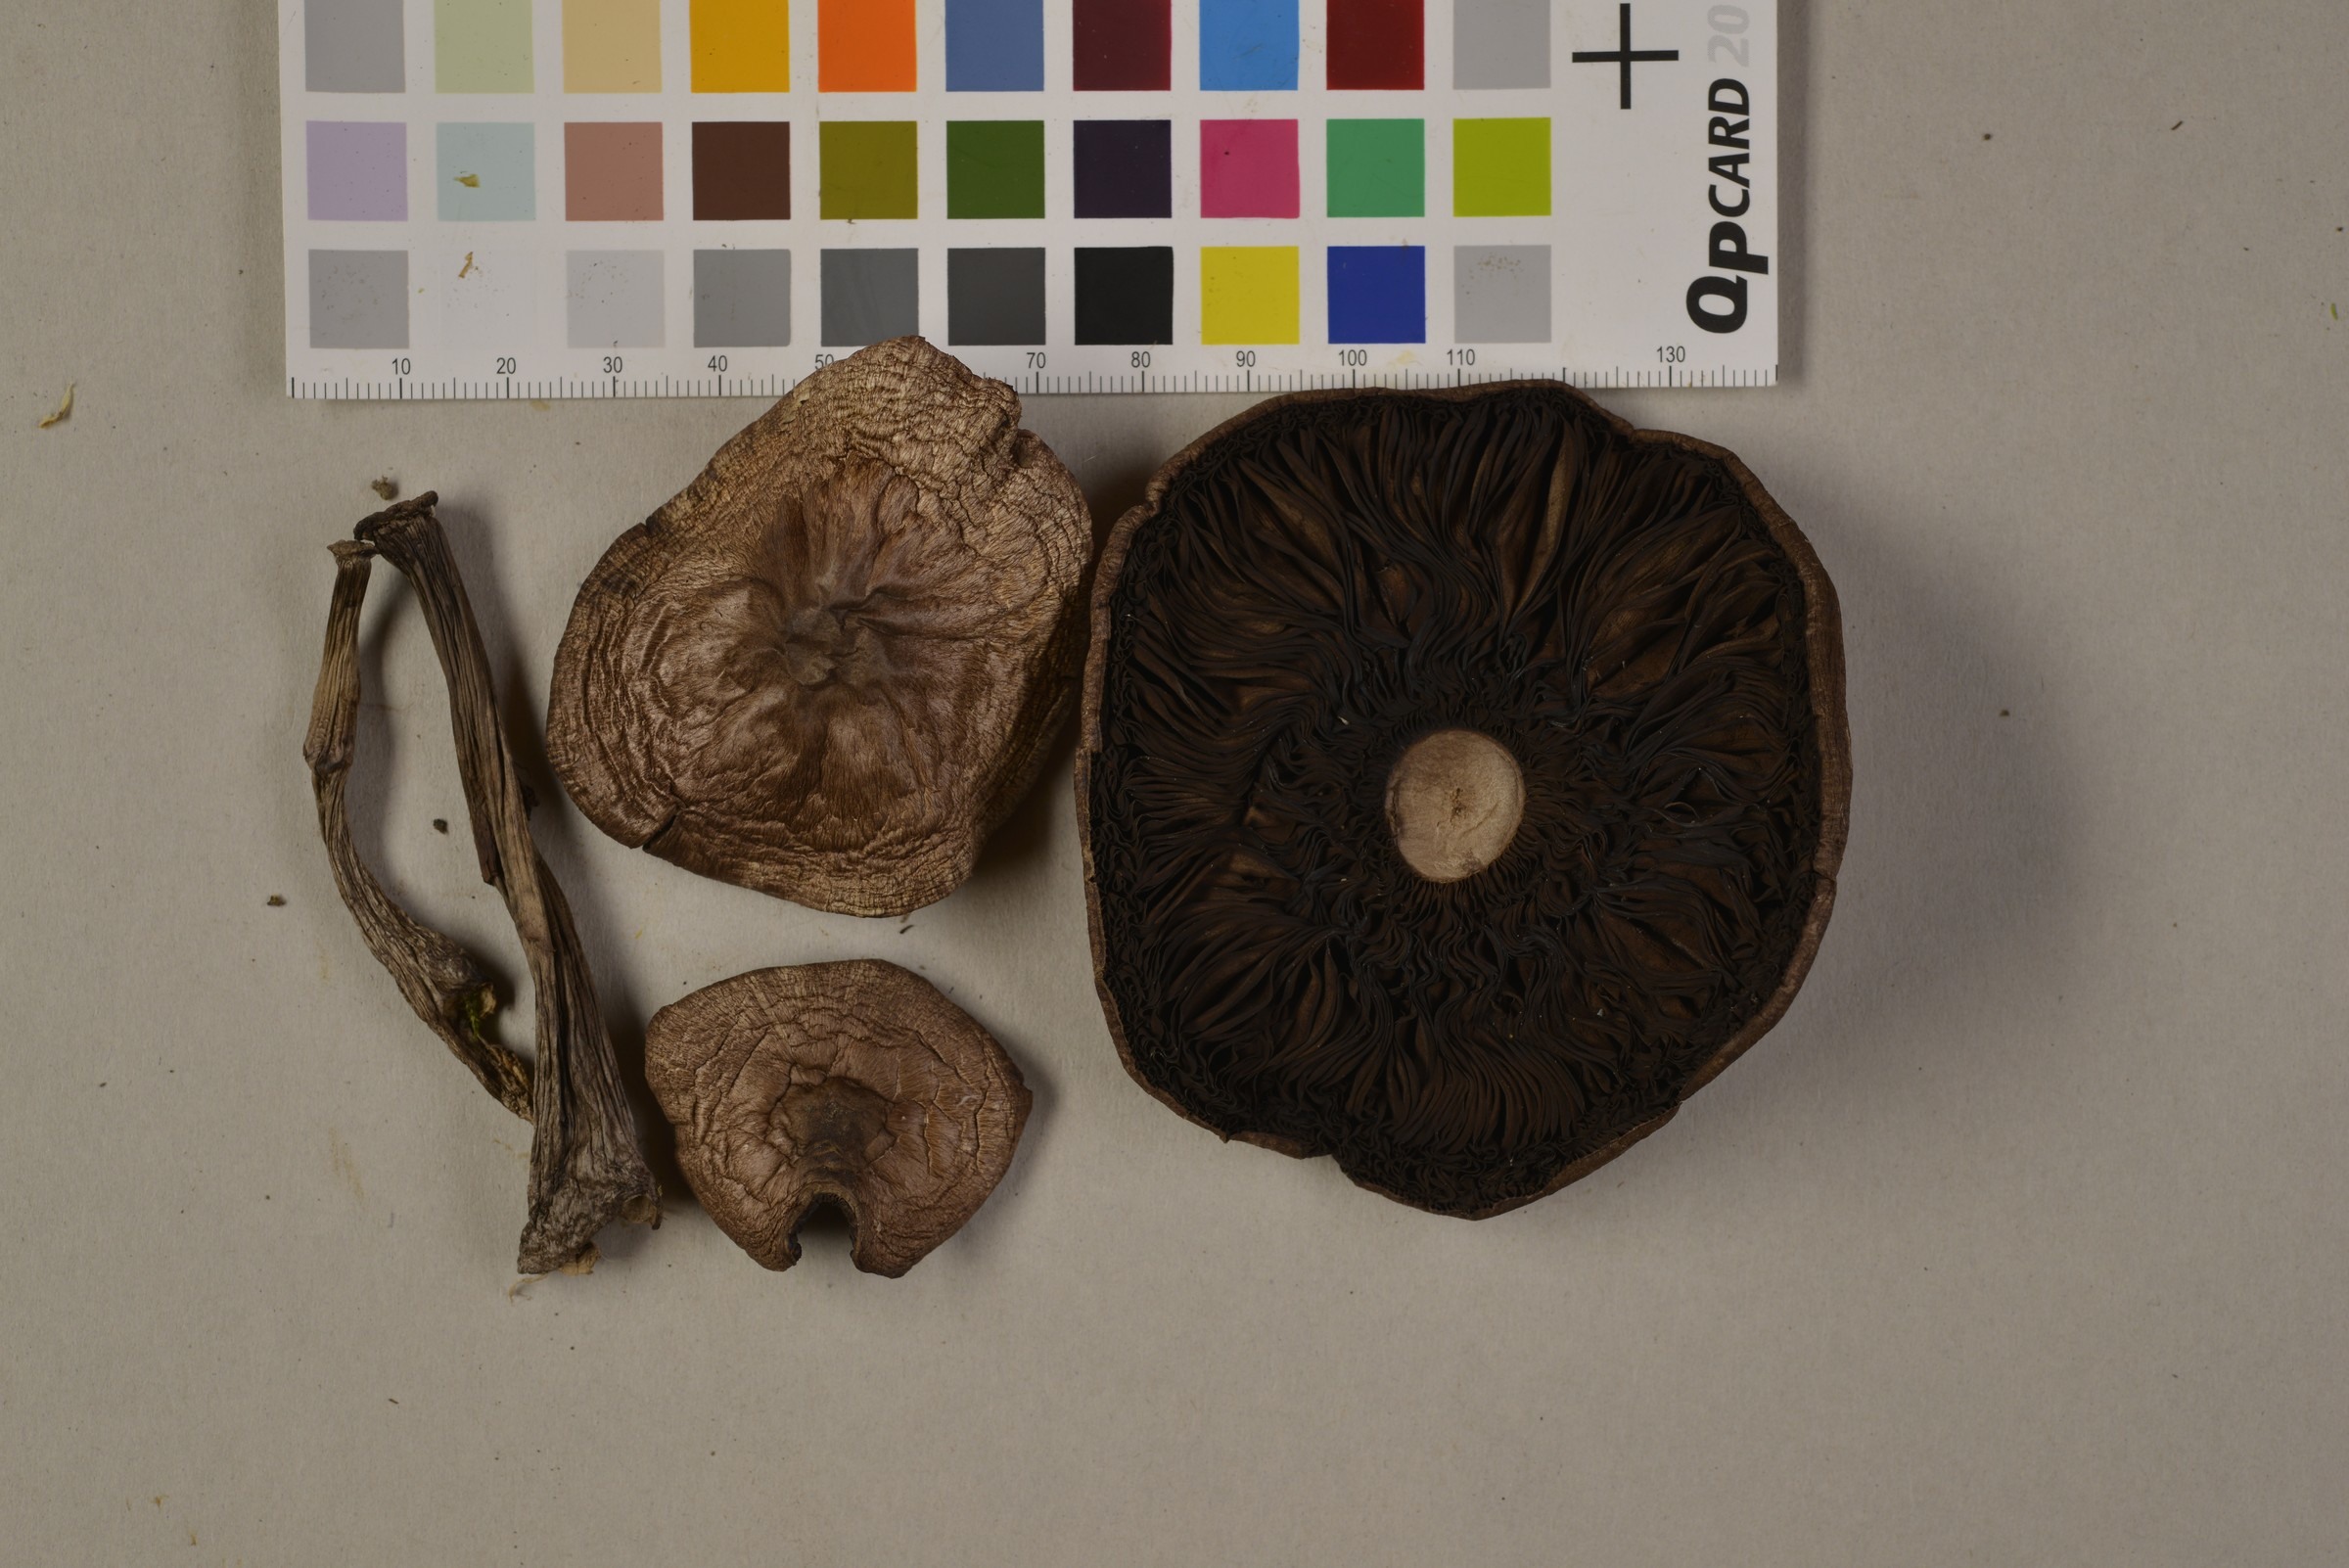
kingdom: Fungi
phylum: Basidiomycota
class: Agaricomycetes
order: Agaricales
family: Agaricaceae
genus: Agaricus
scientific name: Agaricus cupreobrunneus
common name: Copper mushrooom
